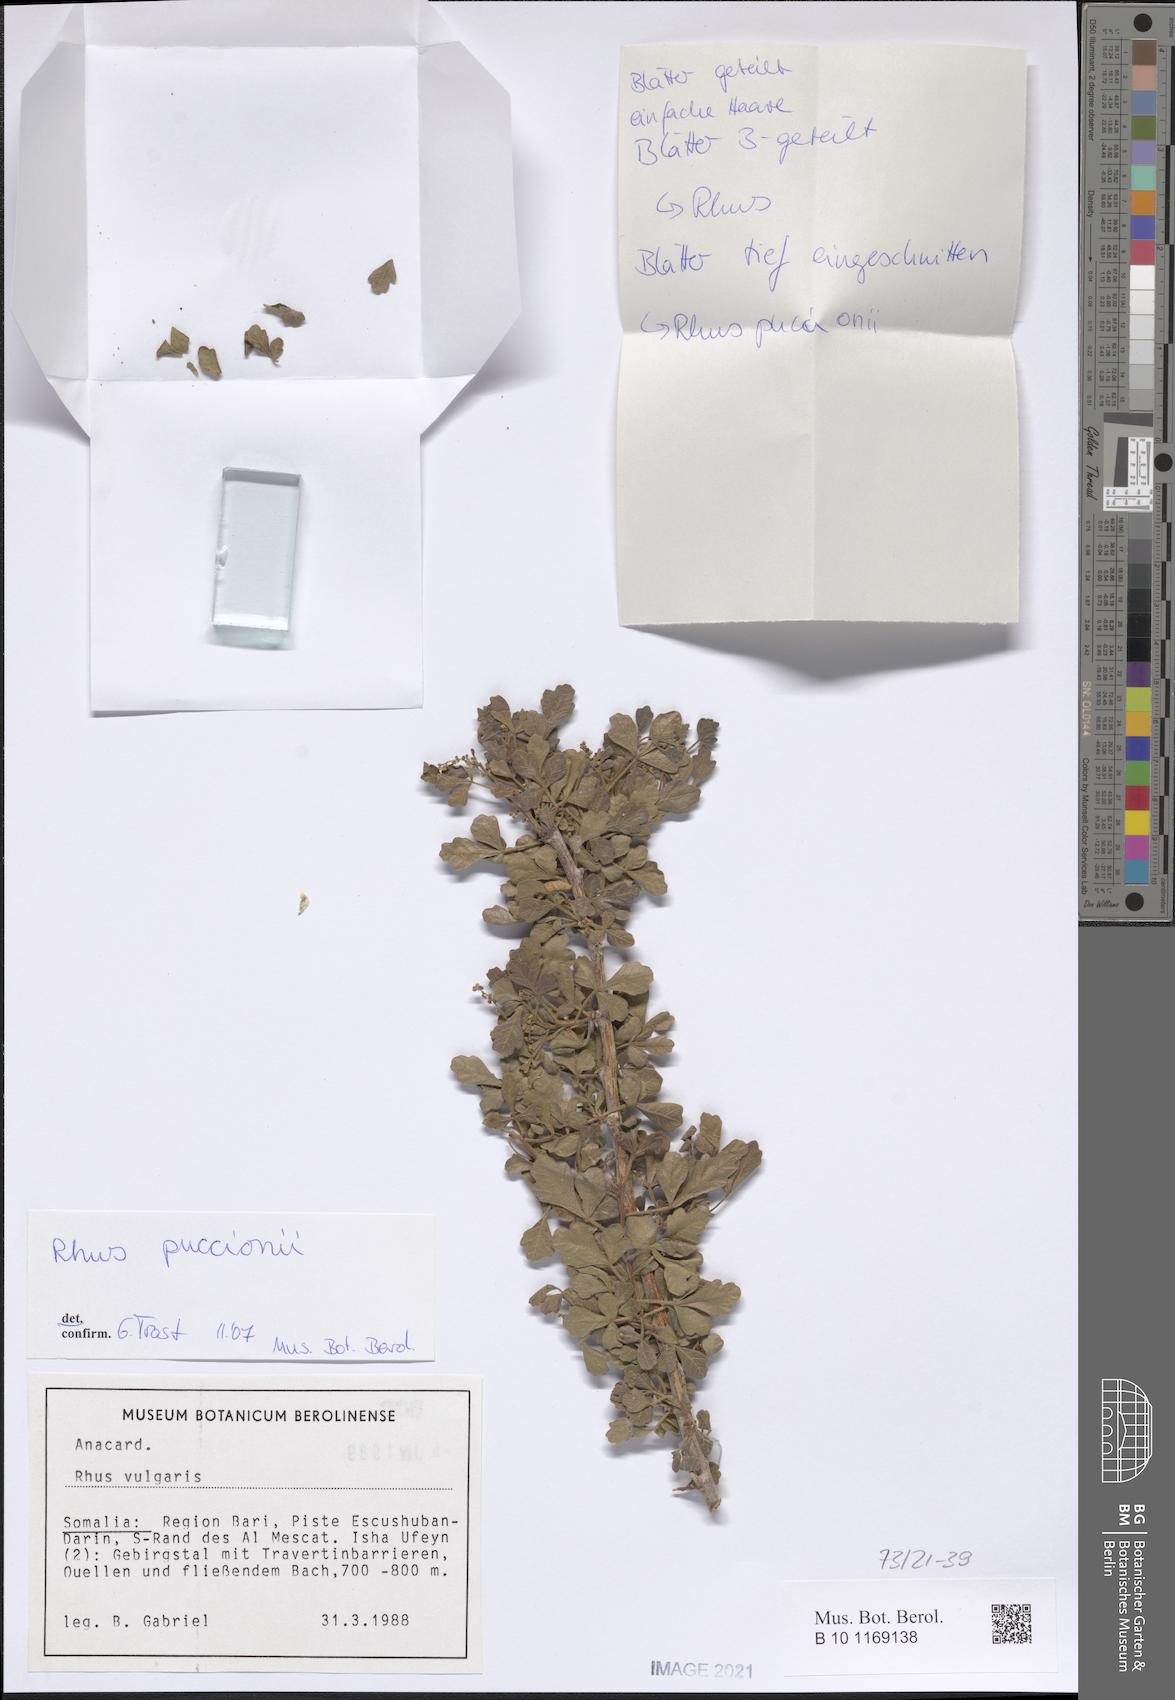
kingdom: Plantae
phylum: Tracheophyta
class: Magnoliopsida
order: Sapindales
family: Anacardiaceae
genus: Searsia
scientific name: Searsia puccionii
